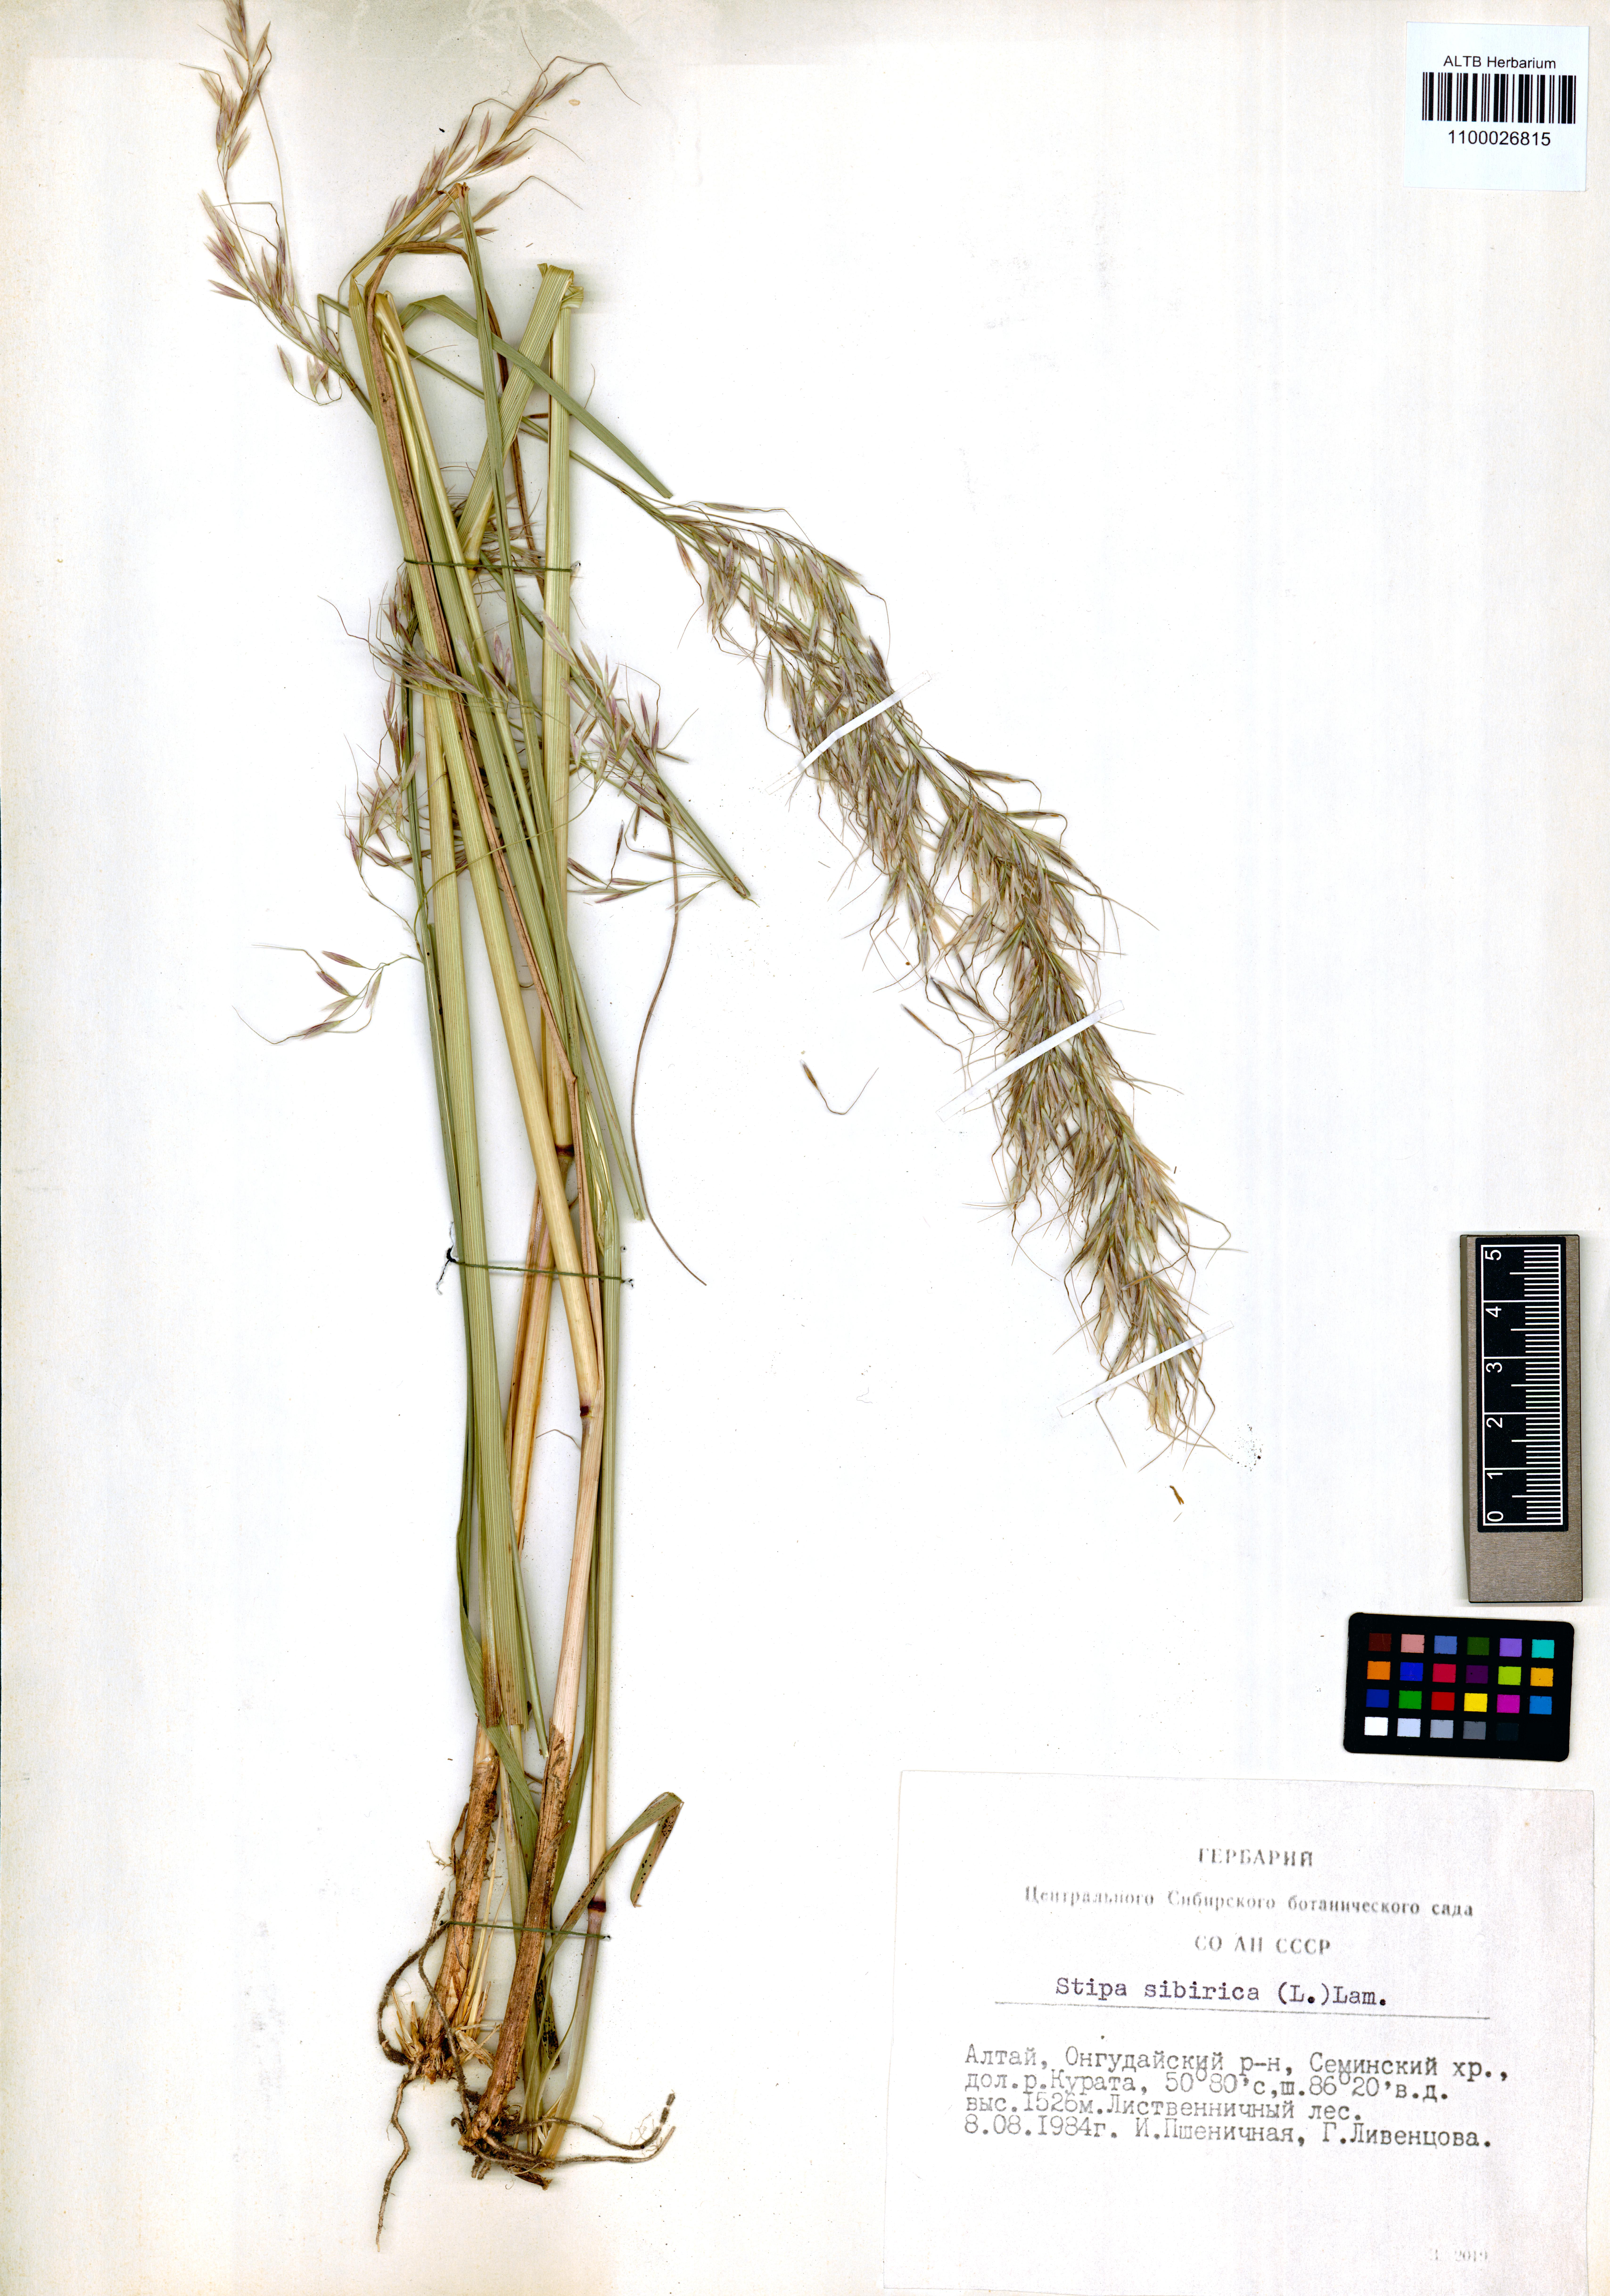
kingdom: Plantae
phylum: Tracheophyta
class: Liliopsida
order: Poales
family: Poaceae
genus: Achnatherum
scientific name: Achnatherum sibiricum
